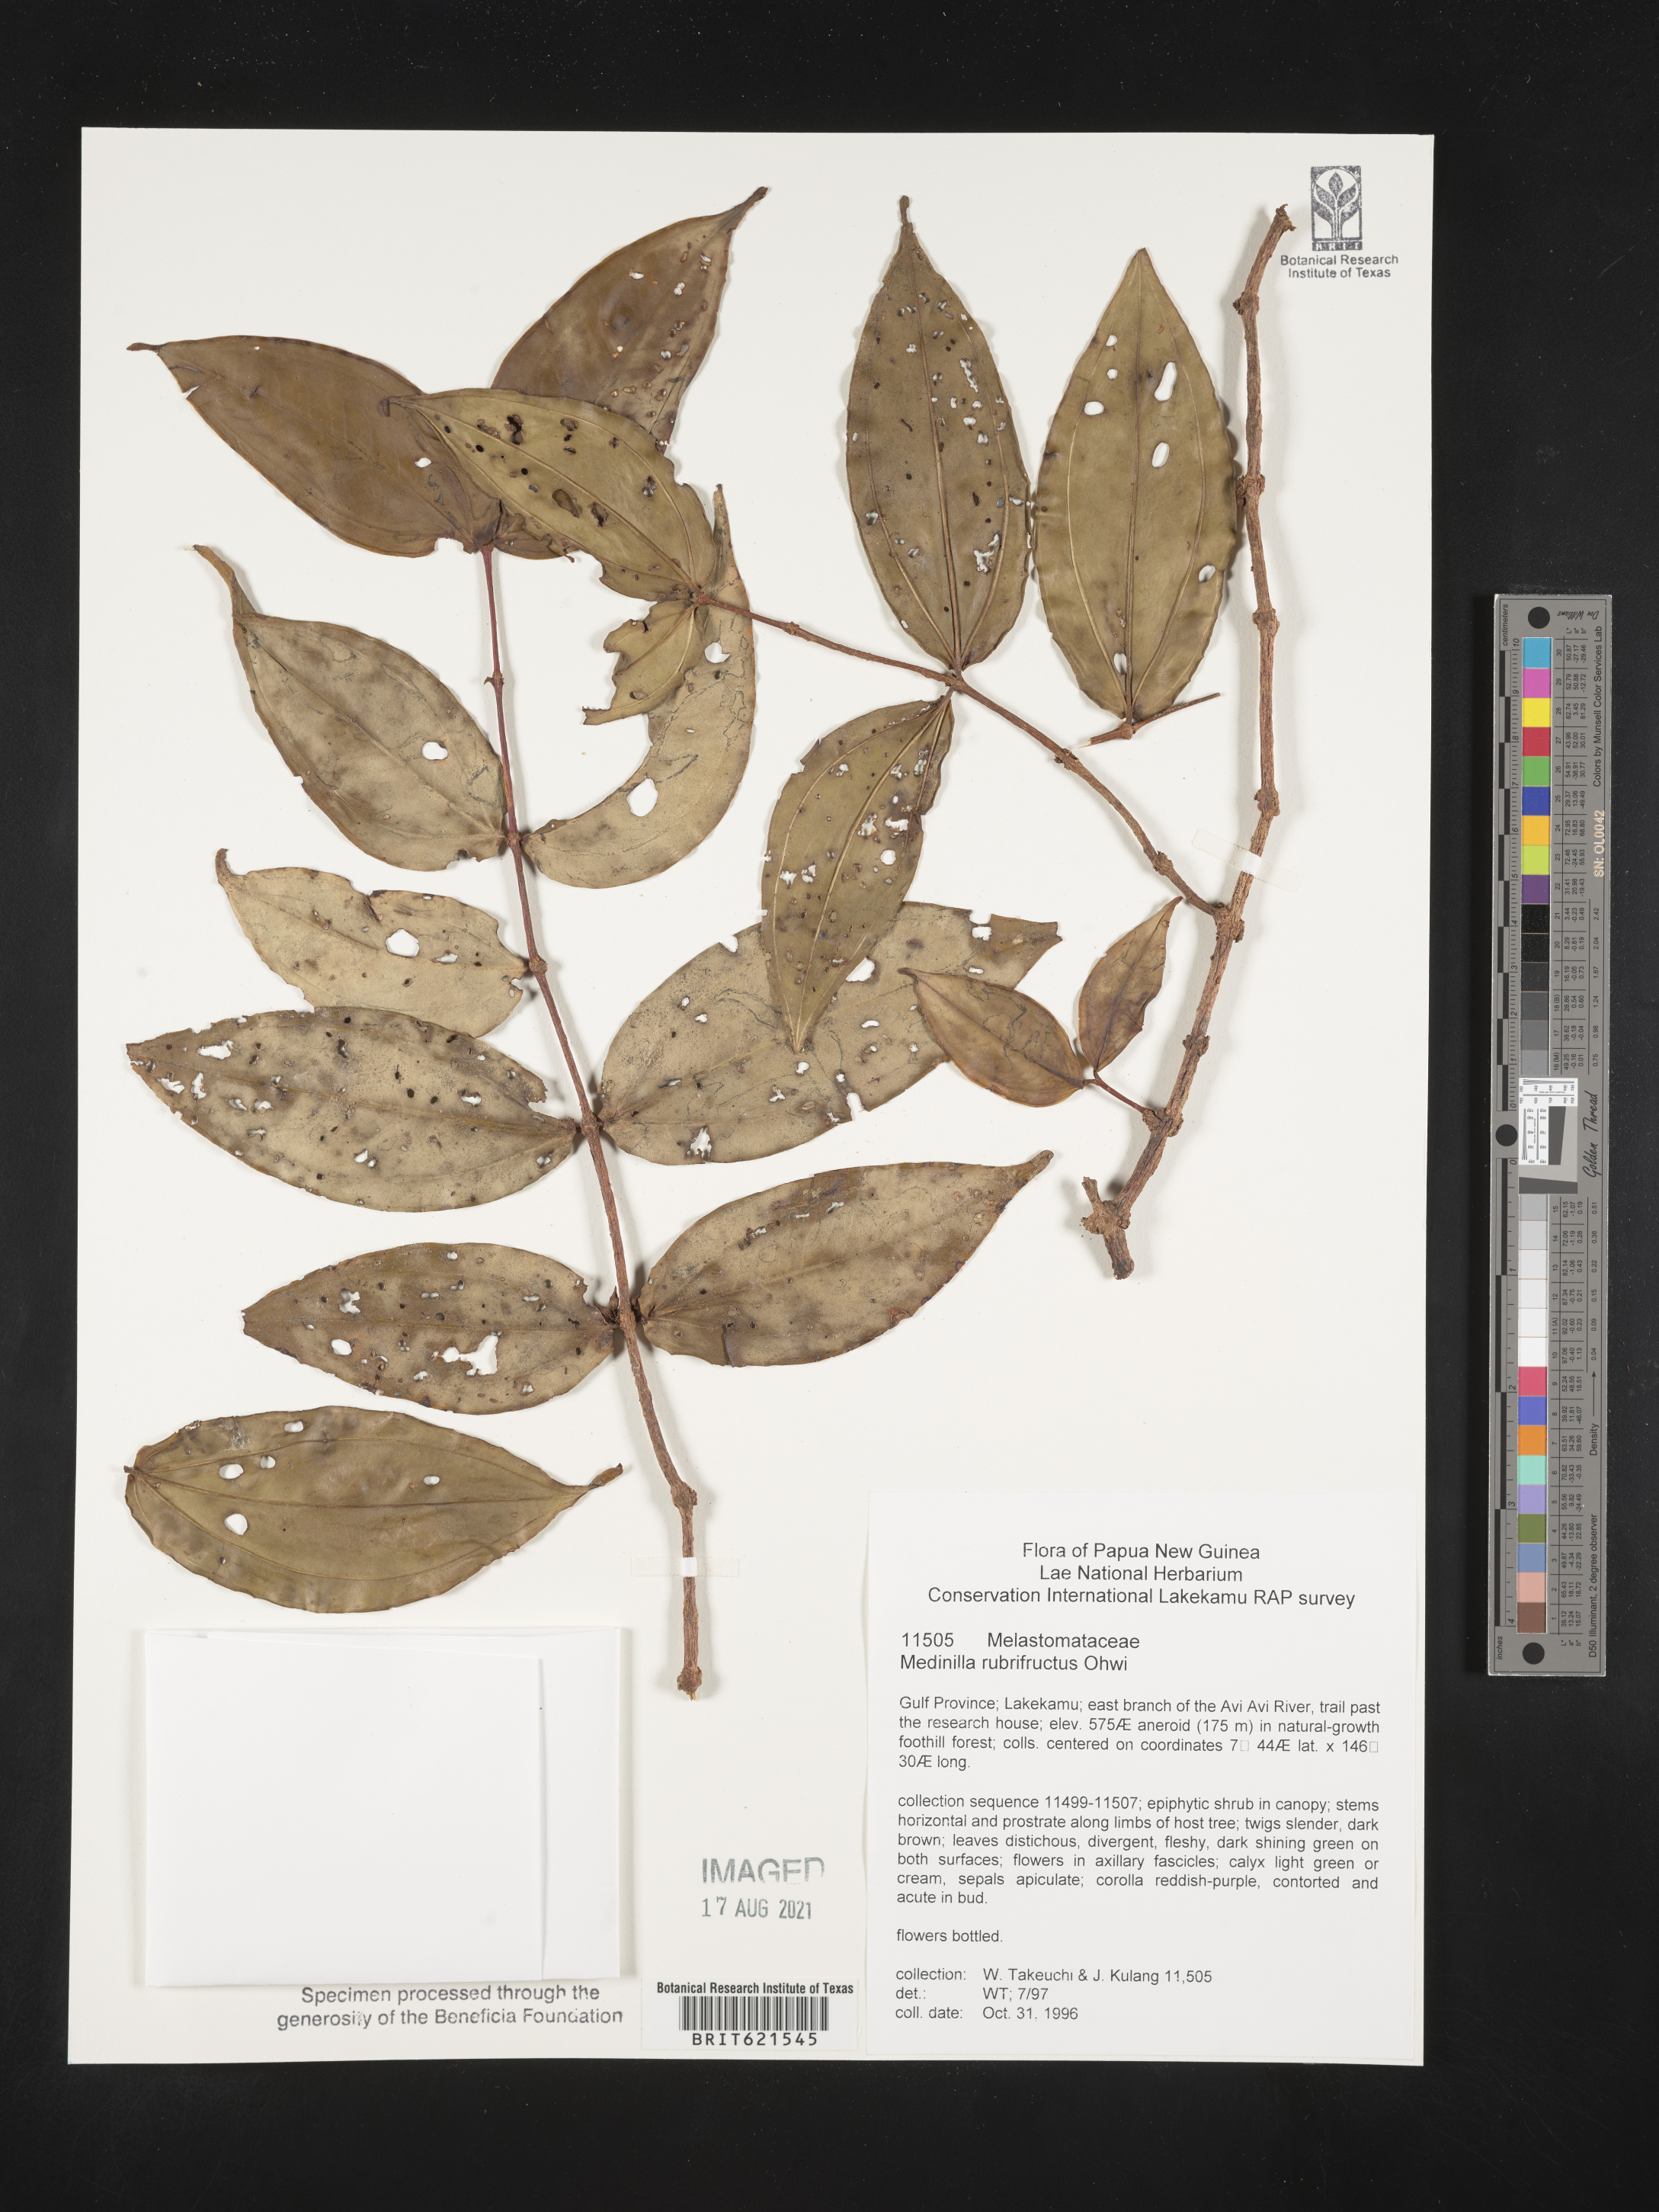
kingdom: Plantae
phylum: Tracheophyta
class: Magnoliopsida
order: Myrtales
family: Melastomataceae
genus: Medinilla
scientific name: Medinilla rubrifructus
